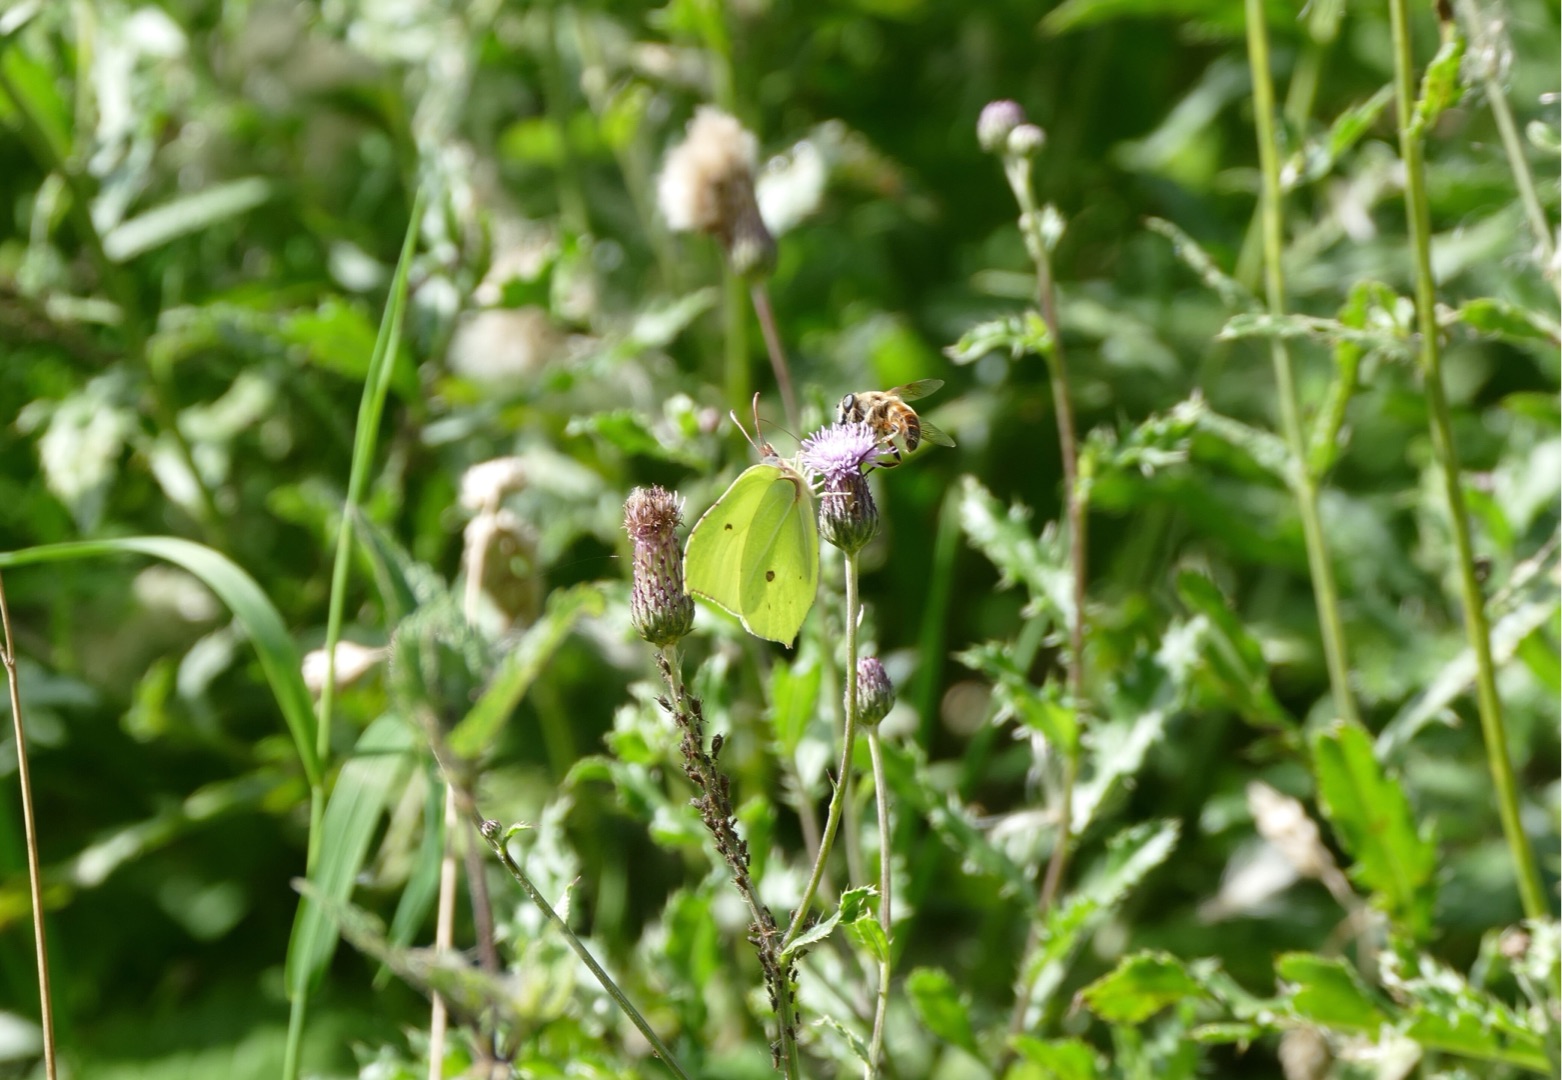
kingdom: Animalia
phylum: Arthropoda
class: Insecta
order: Lepidoptera
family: Pieridae
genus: Gonepteryx
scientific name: Gonepteryx rhamni
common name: Citronsommerfugl
